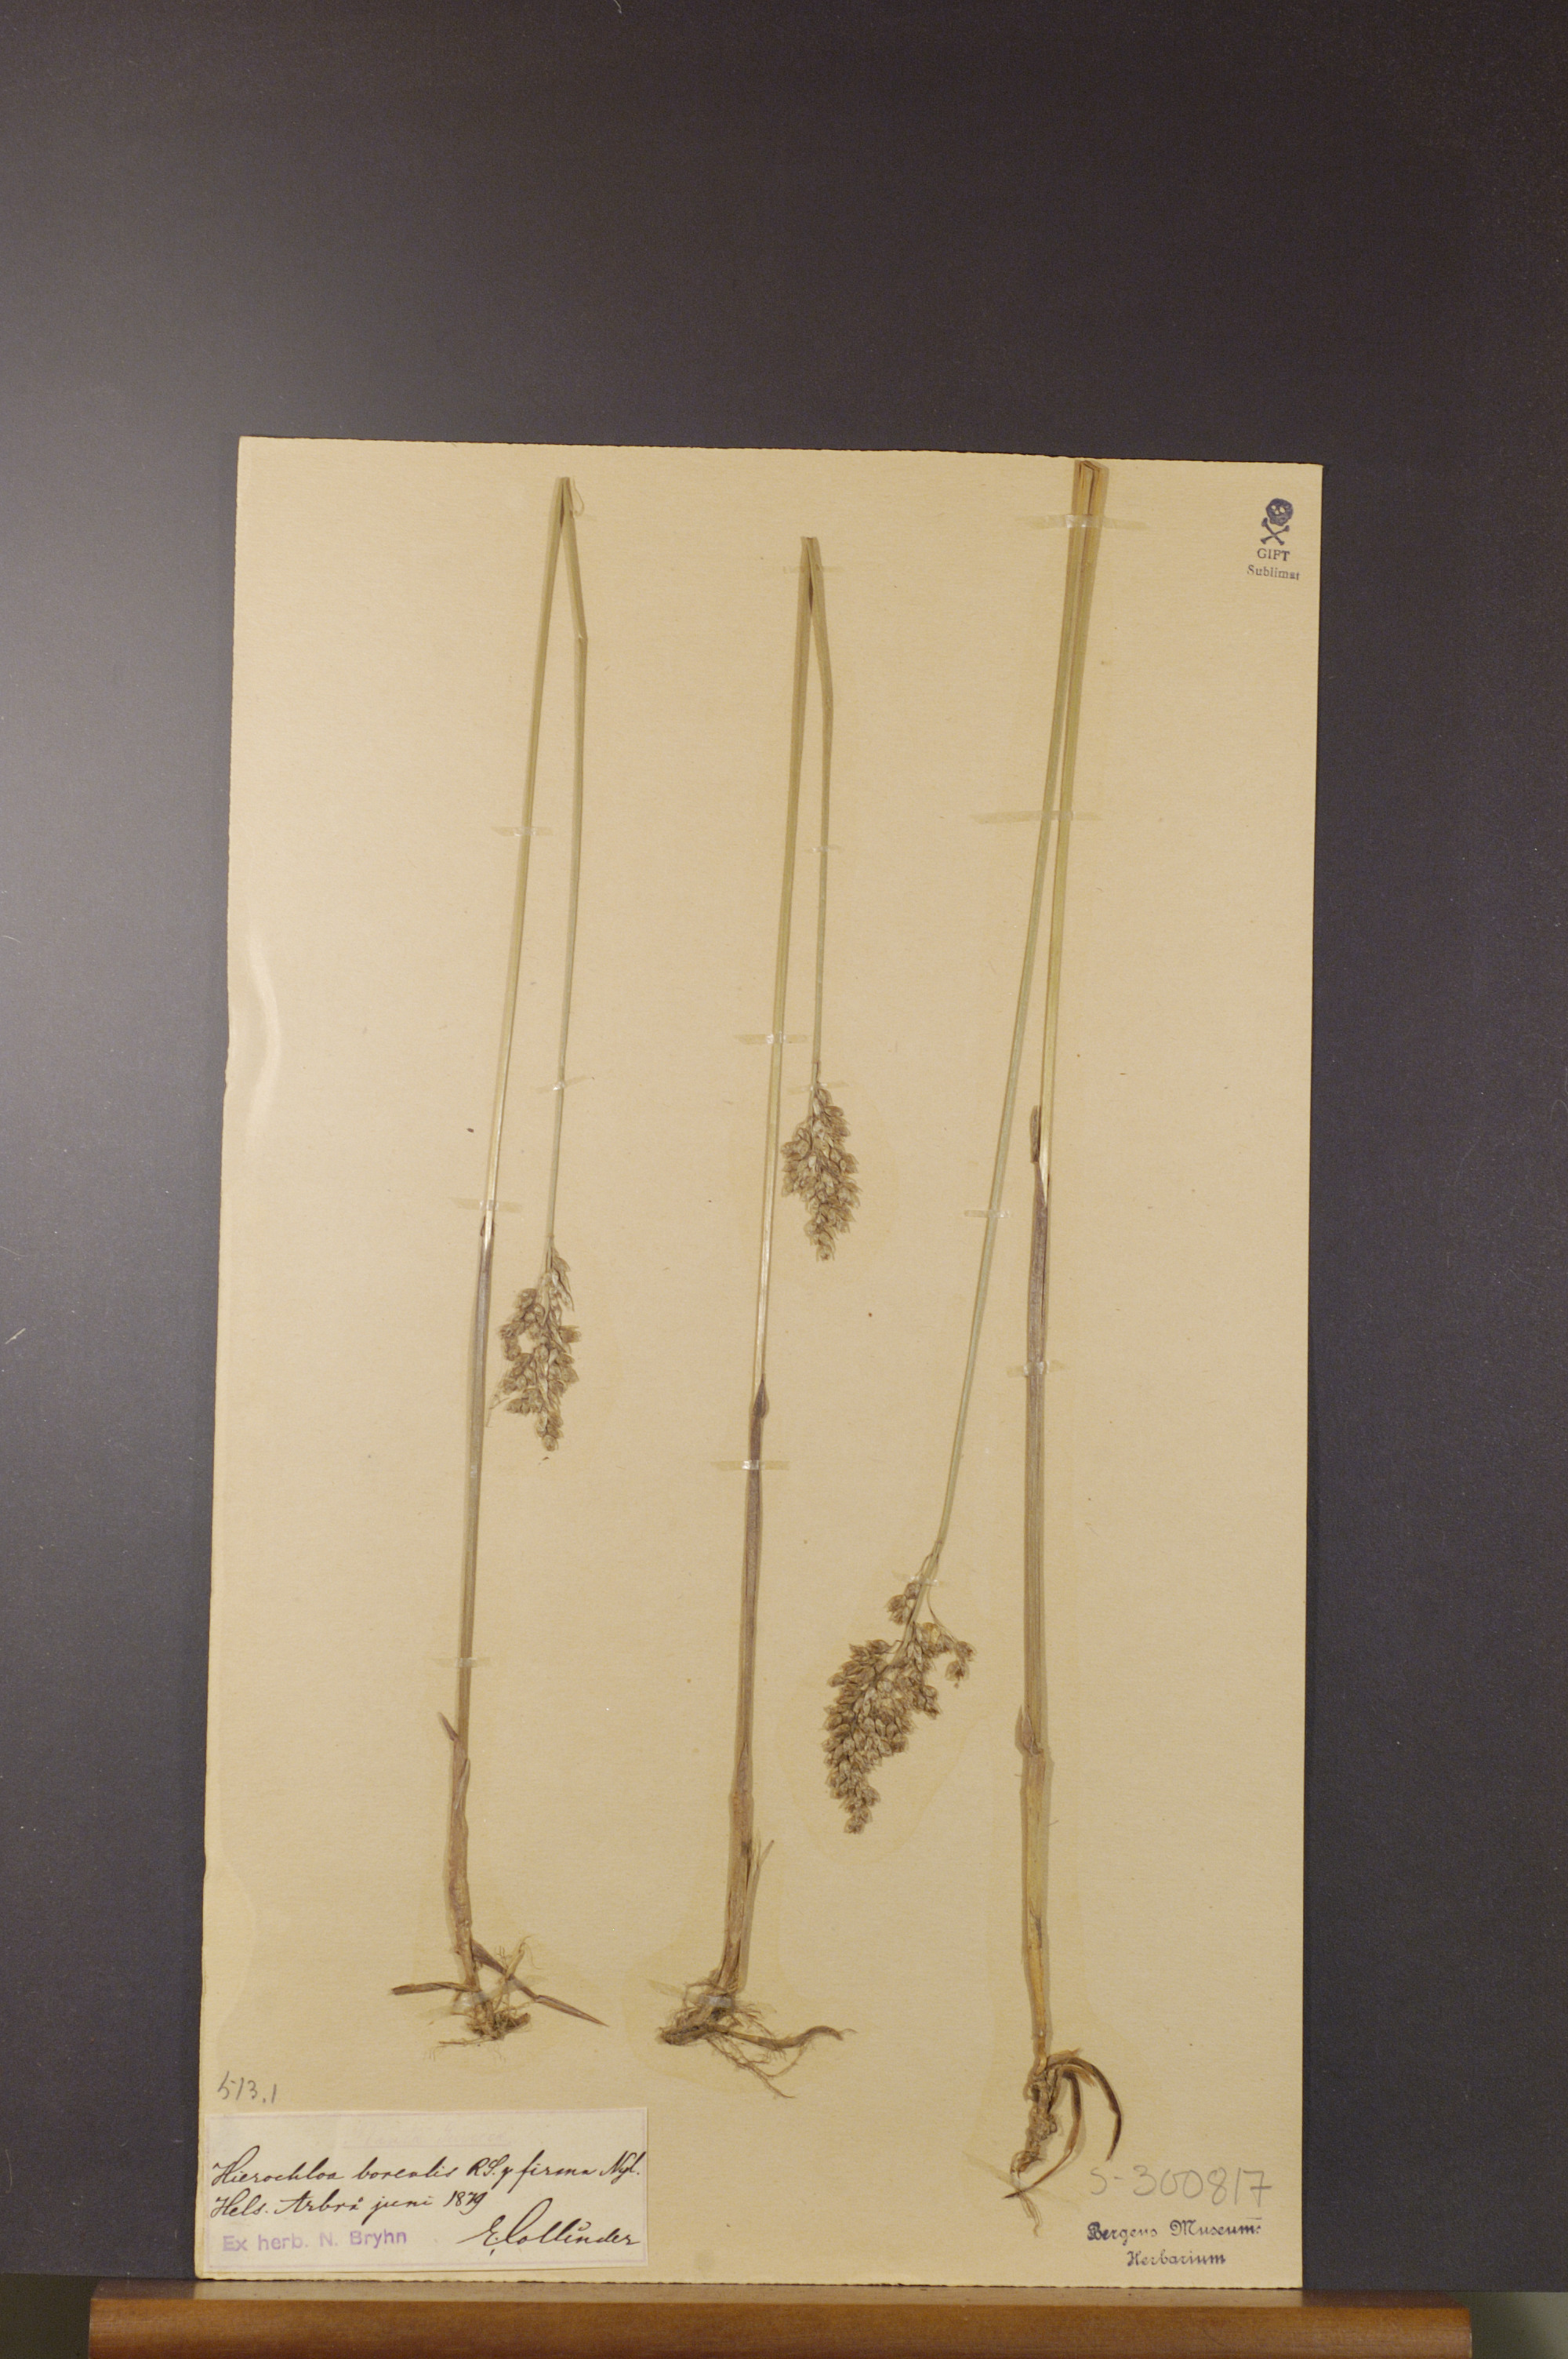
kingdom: Plantae
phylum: Tracheophyta
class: Liliopsida
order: Poales
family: Poaceae
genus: Anthoxanthum
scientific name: Anthoxanthum nitens
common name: Holy grass
